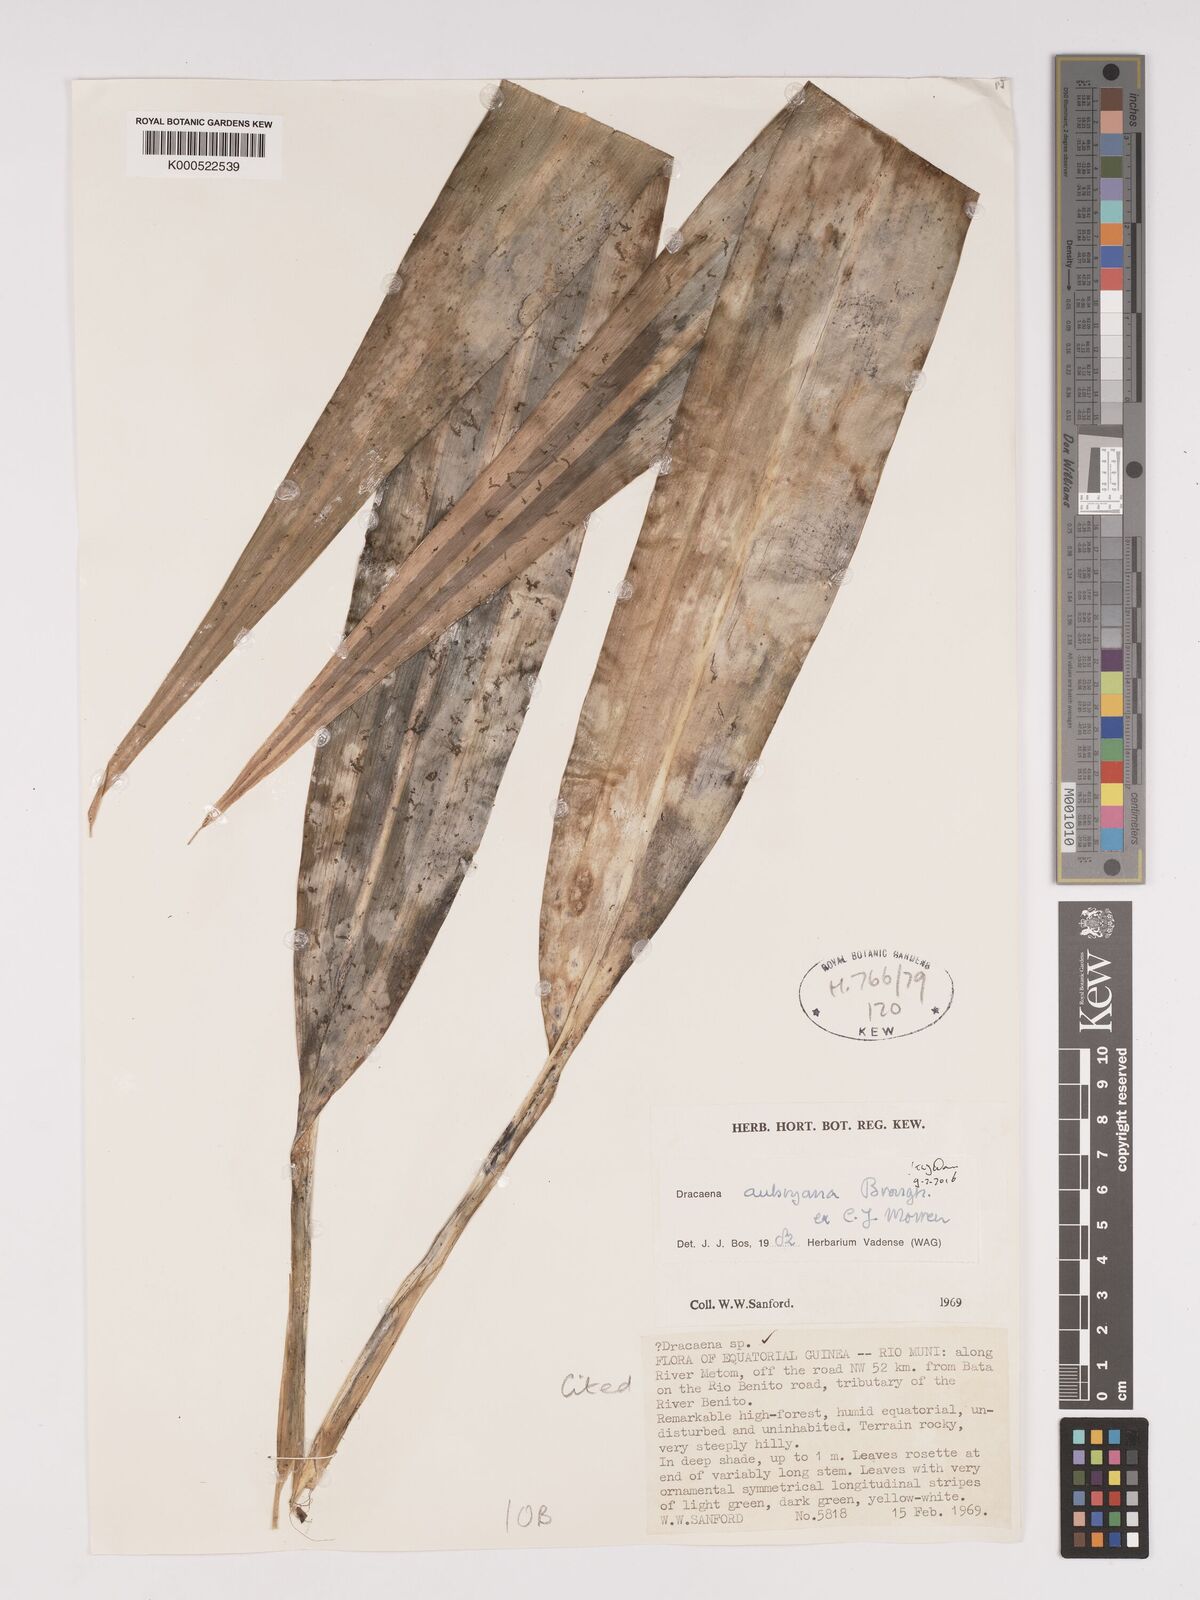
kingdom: Plantae
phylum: Tracheophyta
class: Liliopsida
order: Asparagales
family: Asparagaceae
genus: Dracaena
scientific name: Dracaena aubryana
